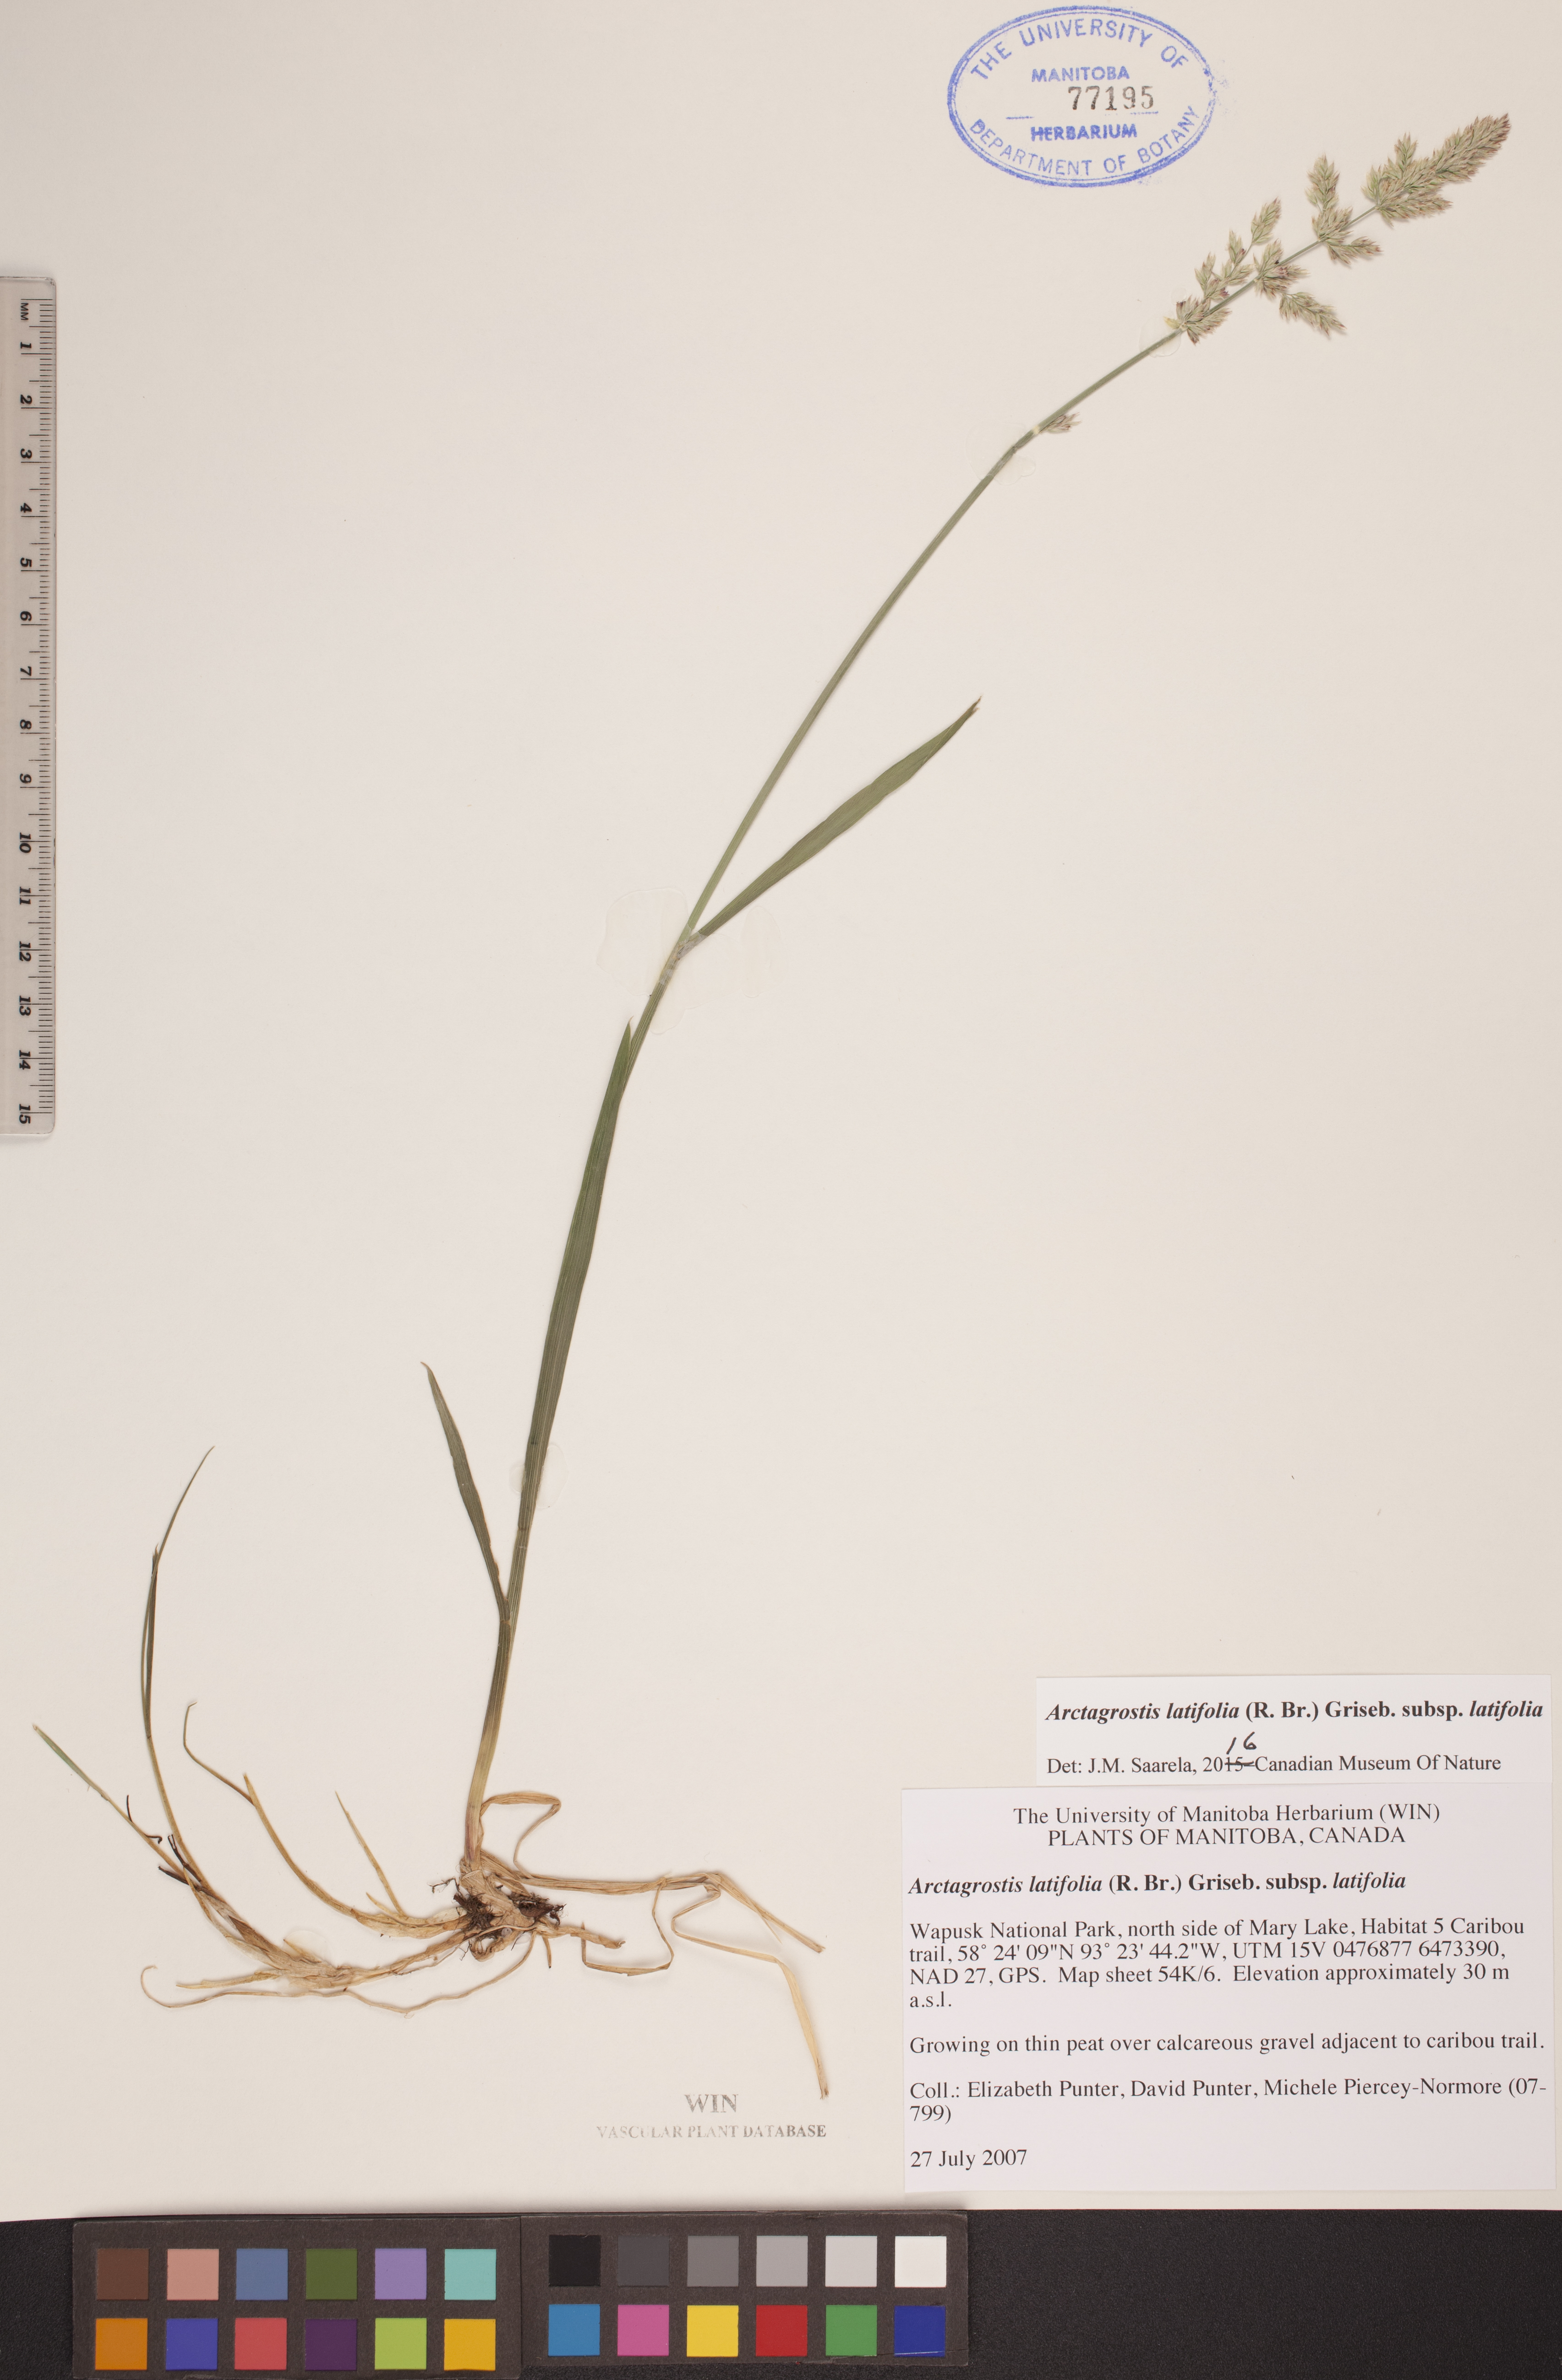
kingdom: Plantae
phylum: Tracheophyta
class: Liliopsida
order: Poales
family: Poaceae
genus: Arctagrostis
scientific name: Arctagrostis latifolia
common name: Arctic grass
